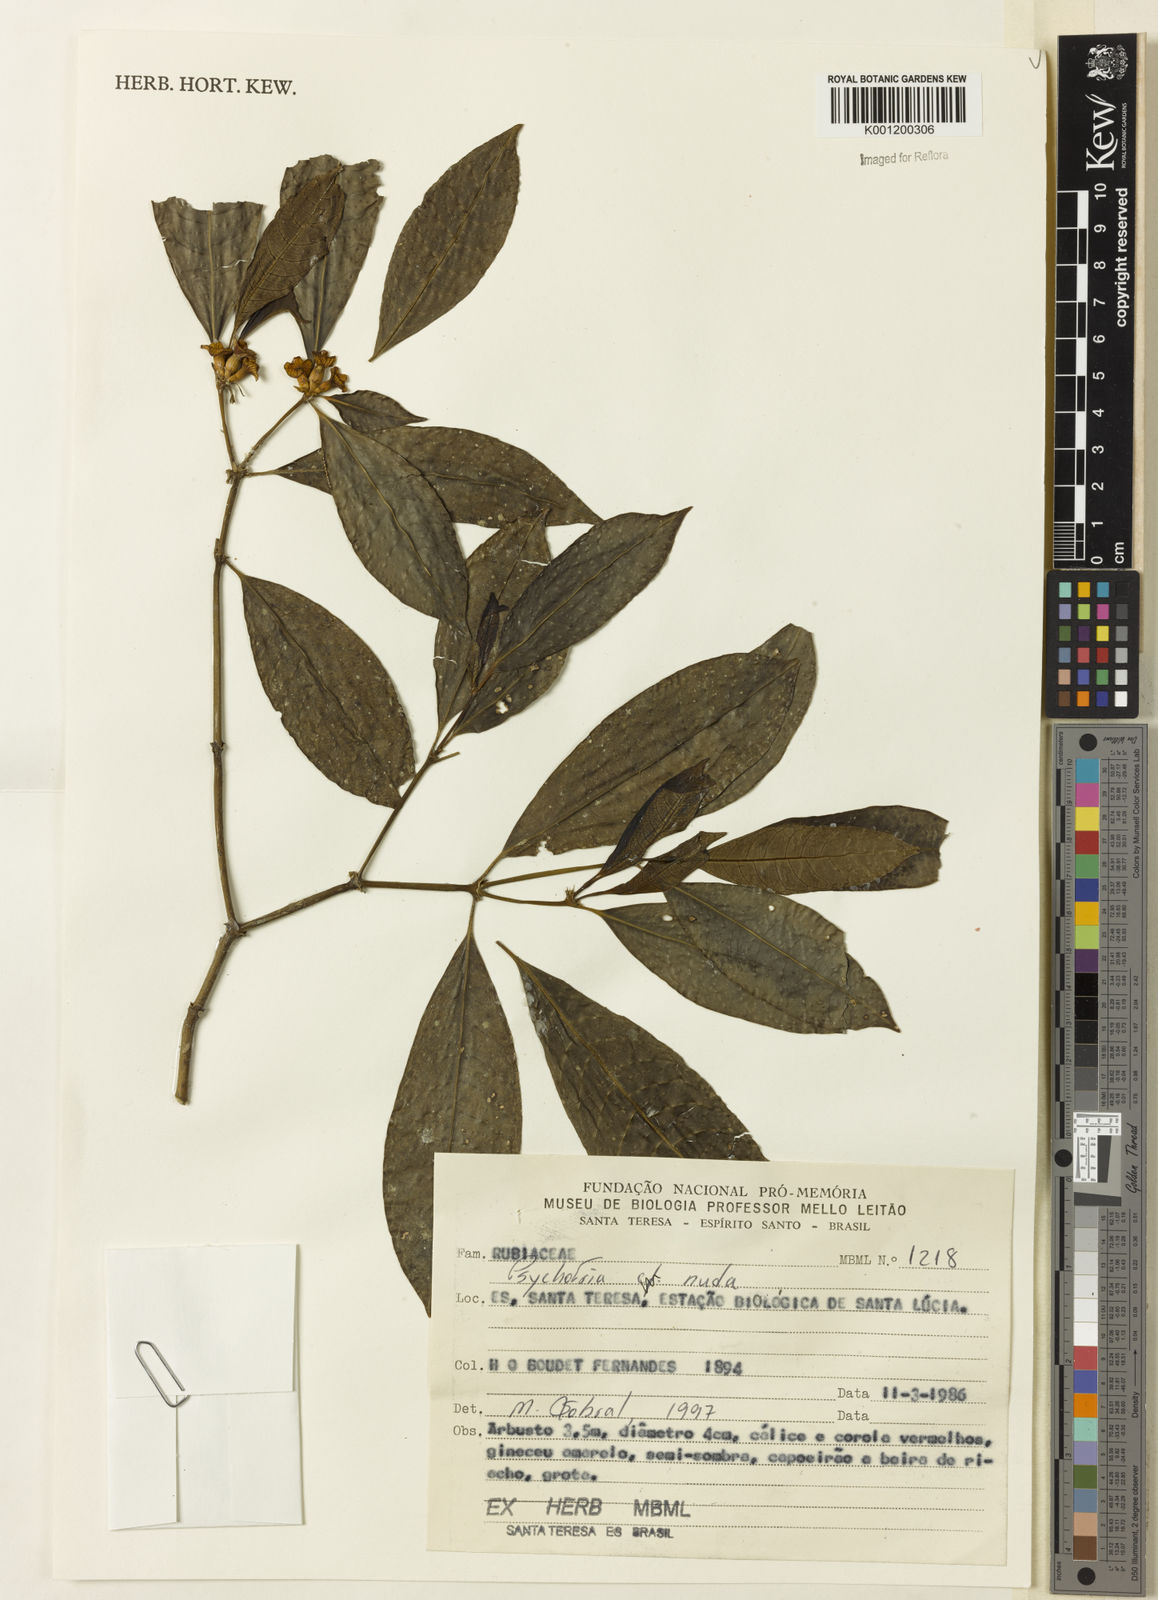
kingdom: Plantae
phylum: Tracheophyta
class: Magnoliopsida
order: Gentianales
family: Rubiaceae
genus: Psychotria
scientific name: Psychotria nuda
